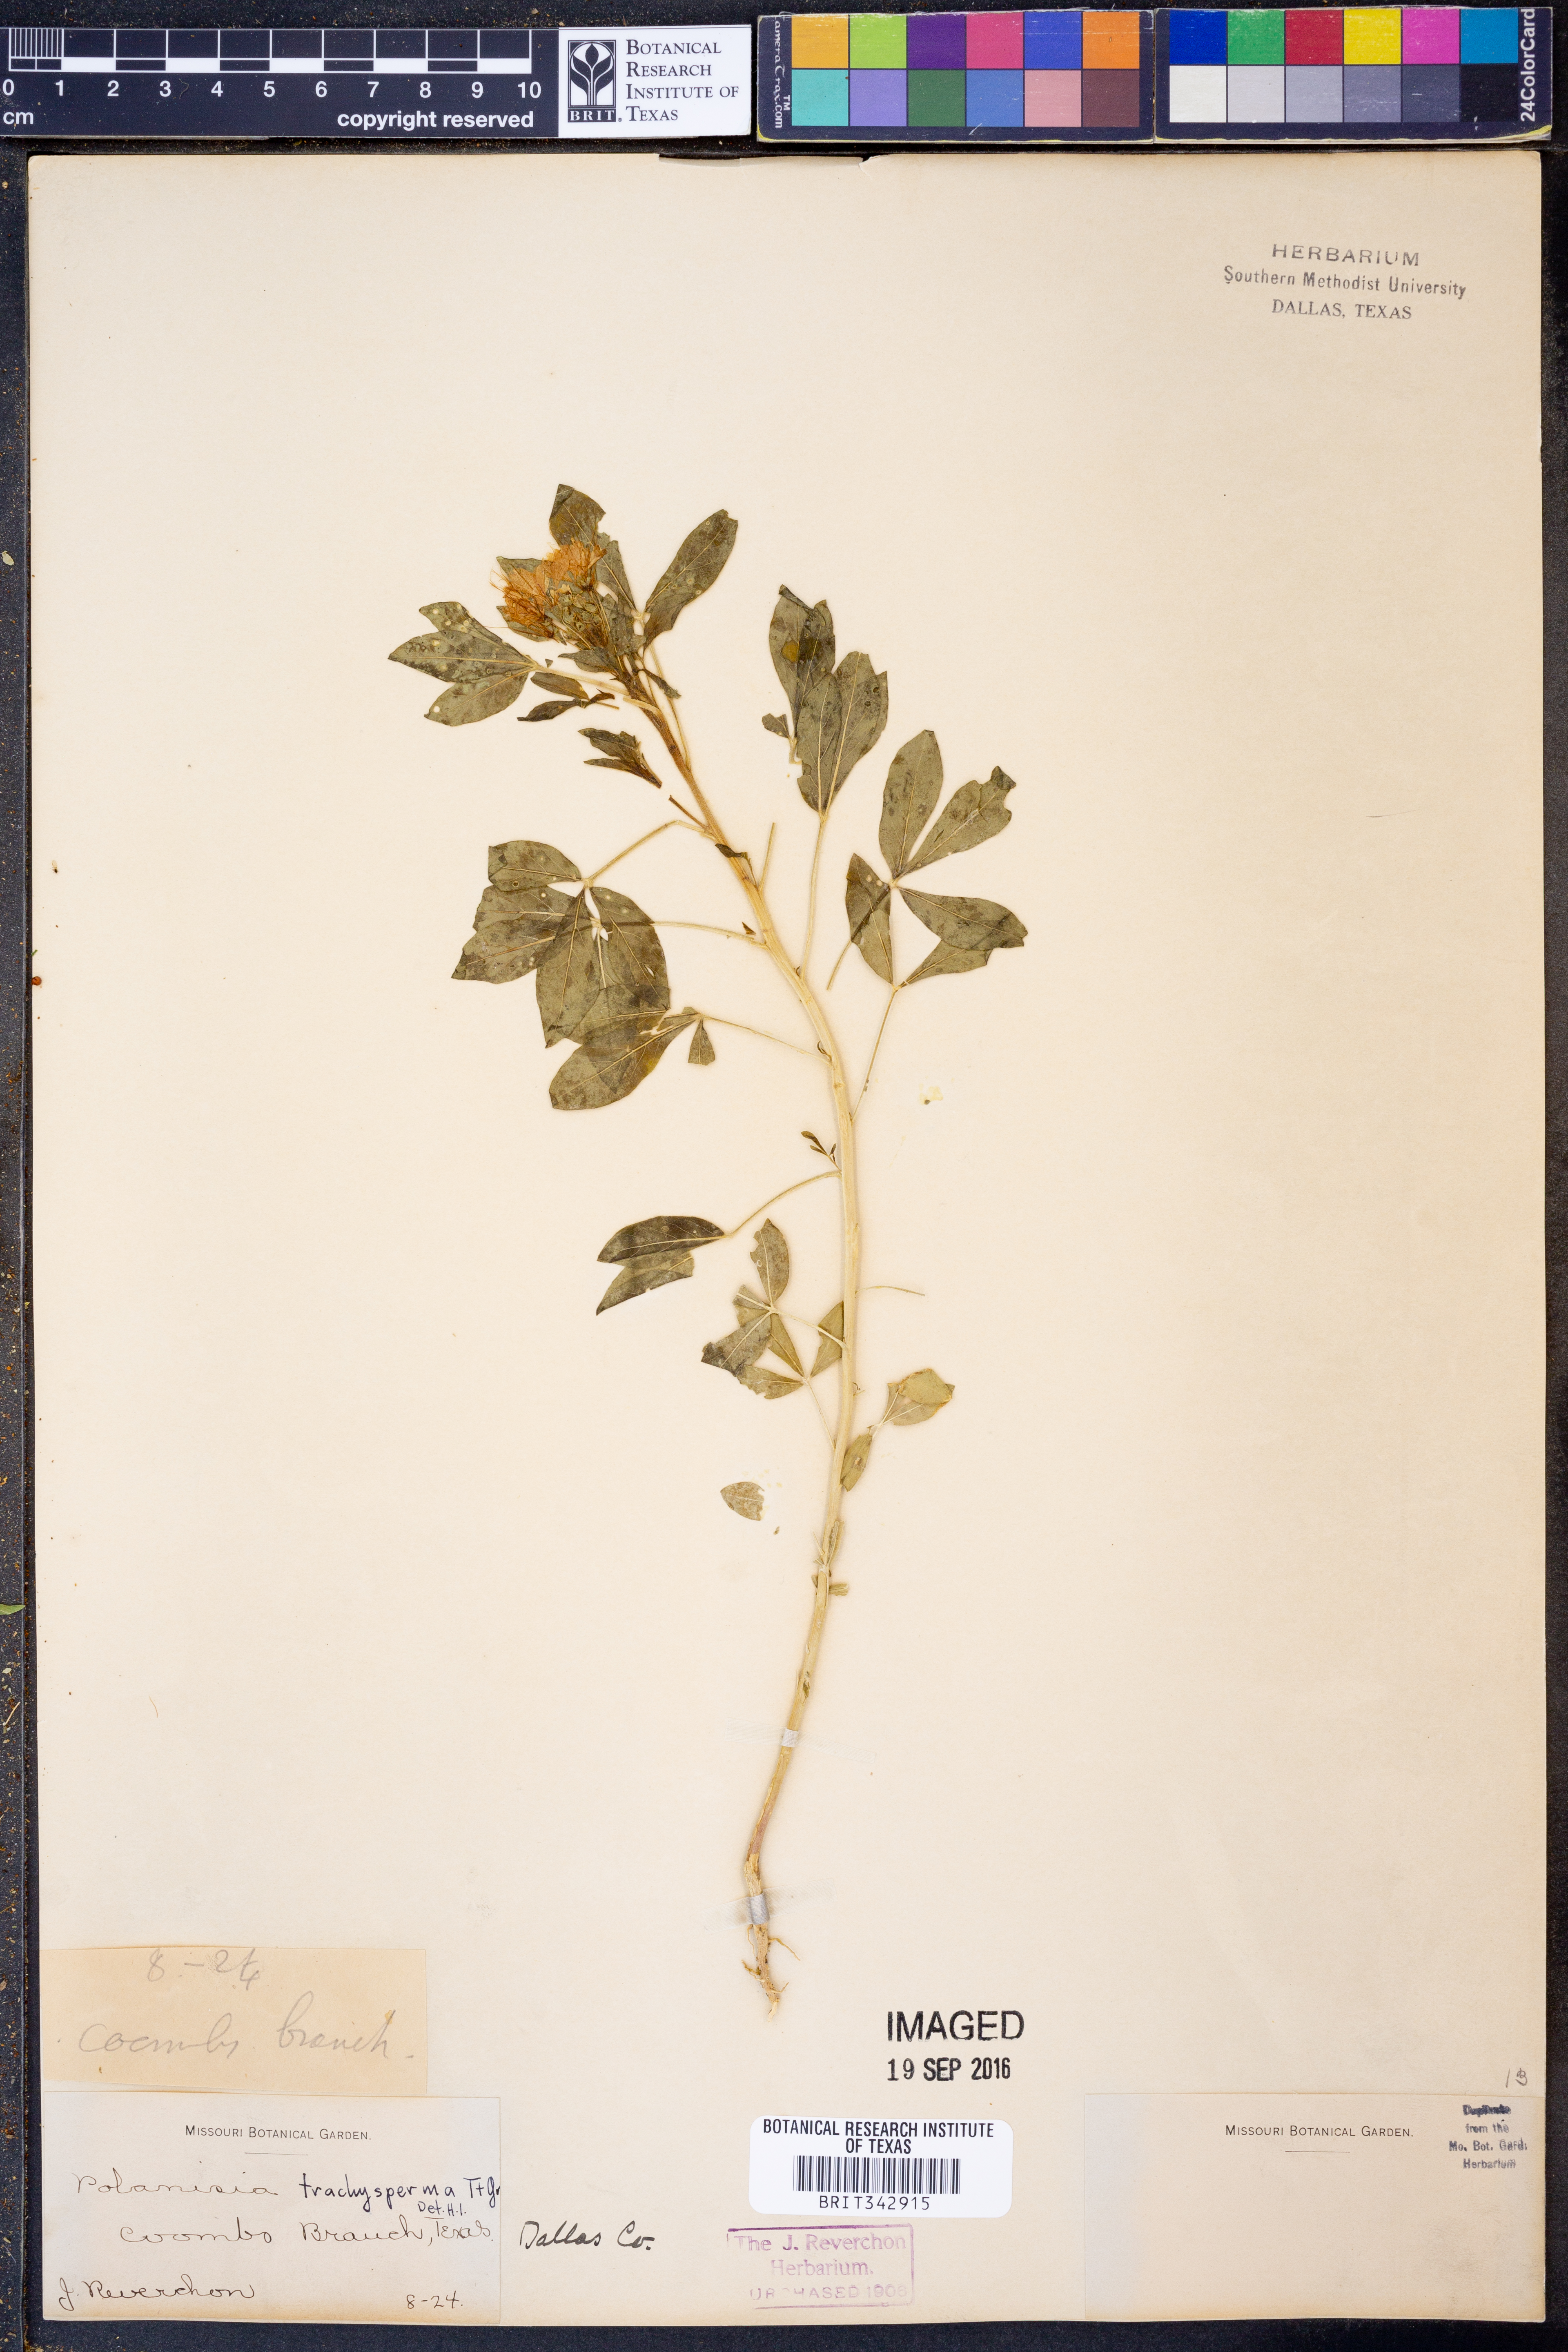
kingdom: Plantae
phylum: Tracheophyta
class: Magnoliopsida
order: Brassicales
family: Cleomaceae
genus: Polanisia
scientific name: Polanisia trachysperma
